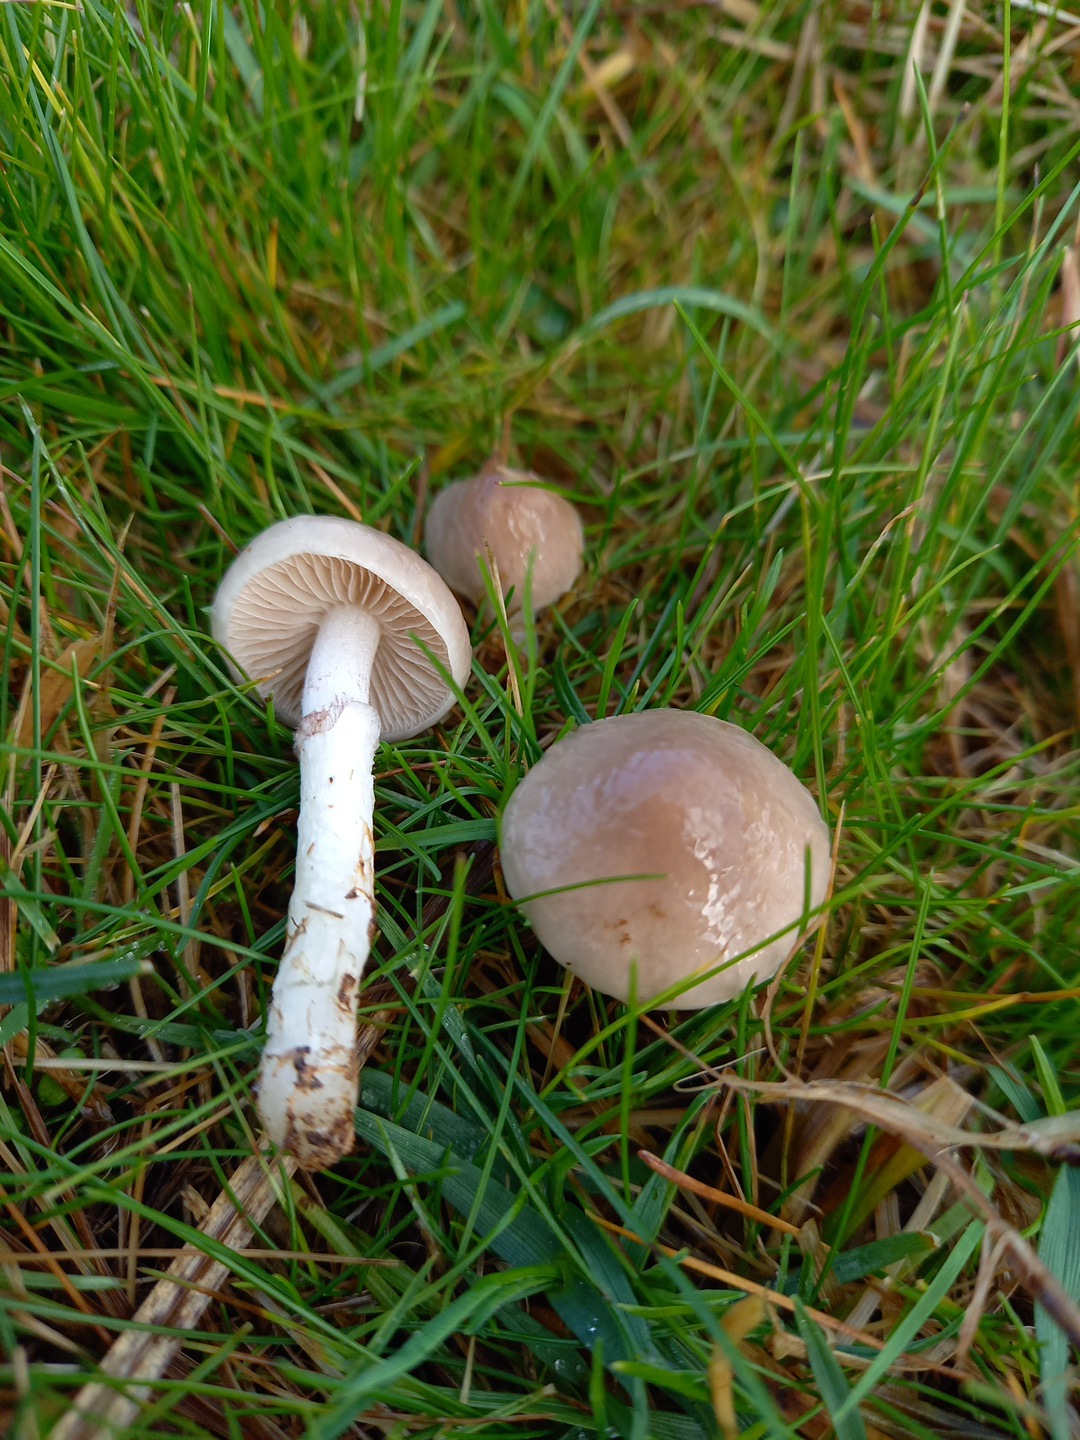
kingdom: Fungi
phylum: Basidiomycota
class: Agaricomycetes
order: Agaricales
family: Strophariaceae
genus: Stropharia
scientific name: Stropharia inuncta
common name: lillabrun bredblad
